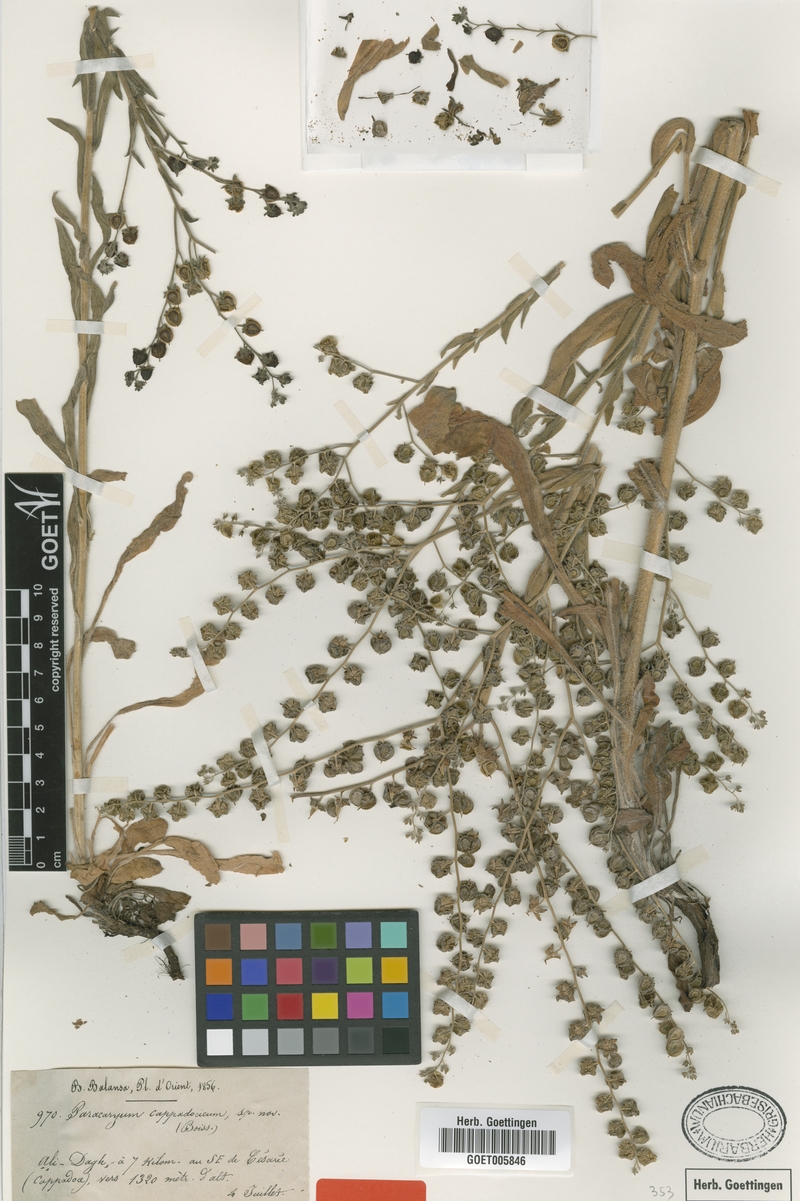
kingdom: Plantae
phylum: Tracheophyta
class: Magnoliopsida
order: Boraginales
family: Boraginaceae
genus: Paracaryum
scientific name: Paracaryum cappadocicum
